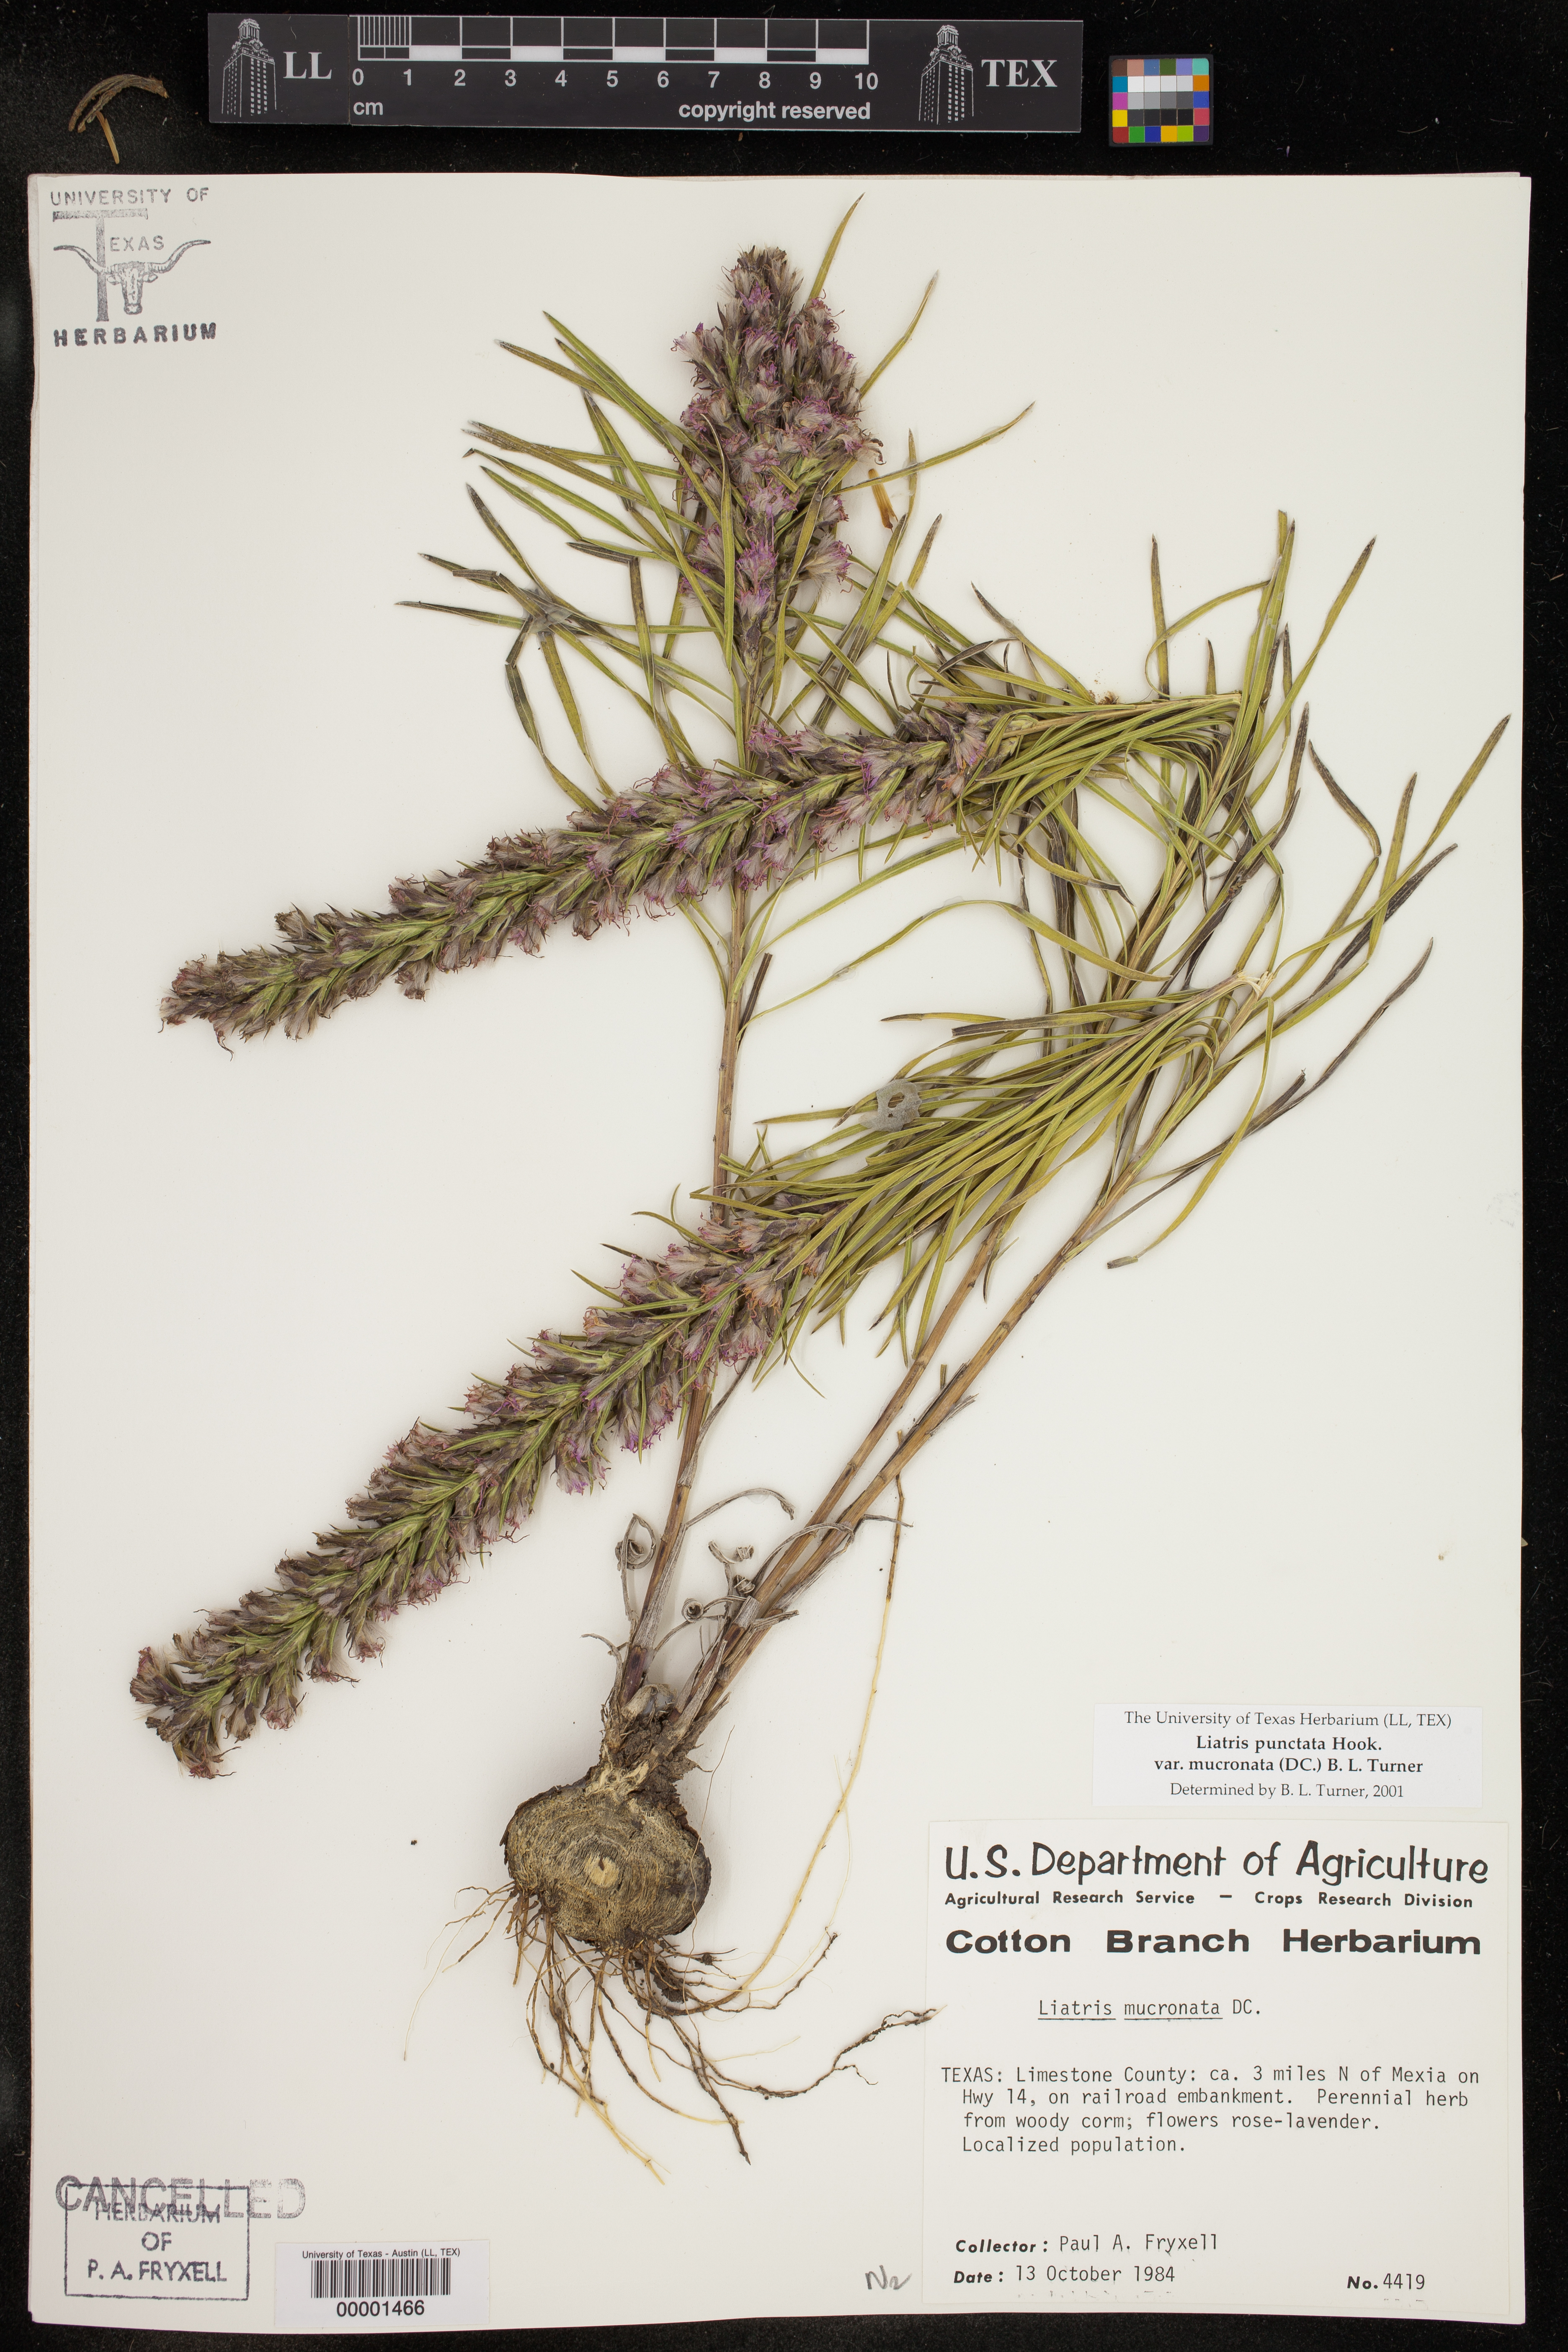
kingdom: Plantae
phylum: Tracheophyta
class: Magnoliopsida
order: Asterales
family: Asteraceae
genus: Liatris
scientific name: Liatris punctata
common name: Dotted gayfeather
